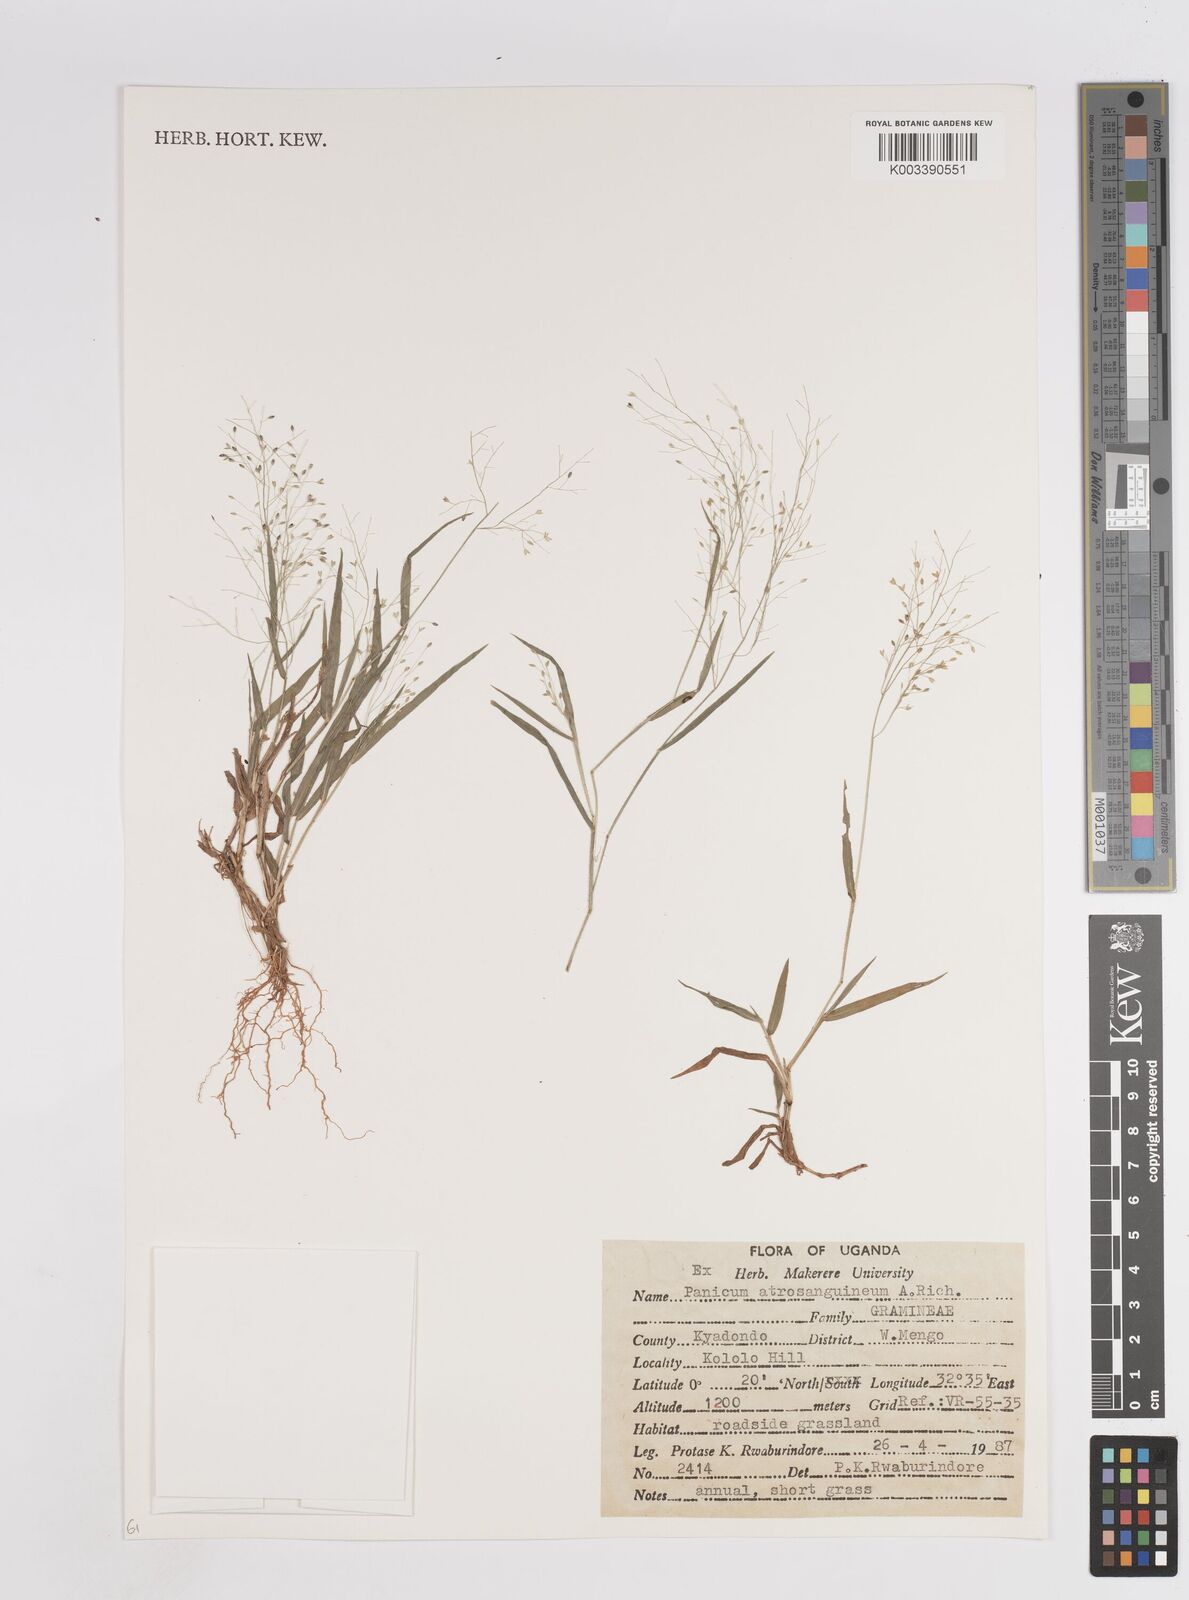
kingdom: Plantae
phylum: Tracheophyta
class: Liliopsida
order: Poales
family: Poaceae
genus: Panicum
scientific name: Panicum atrosanguineum
